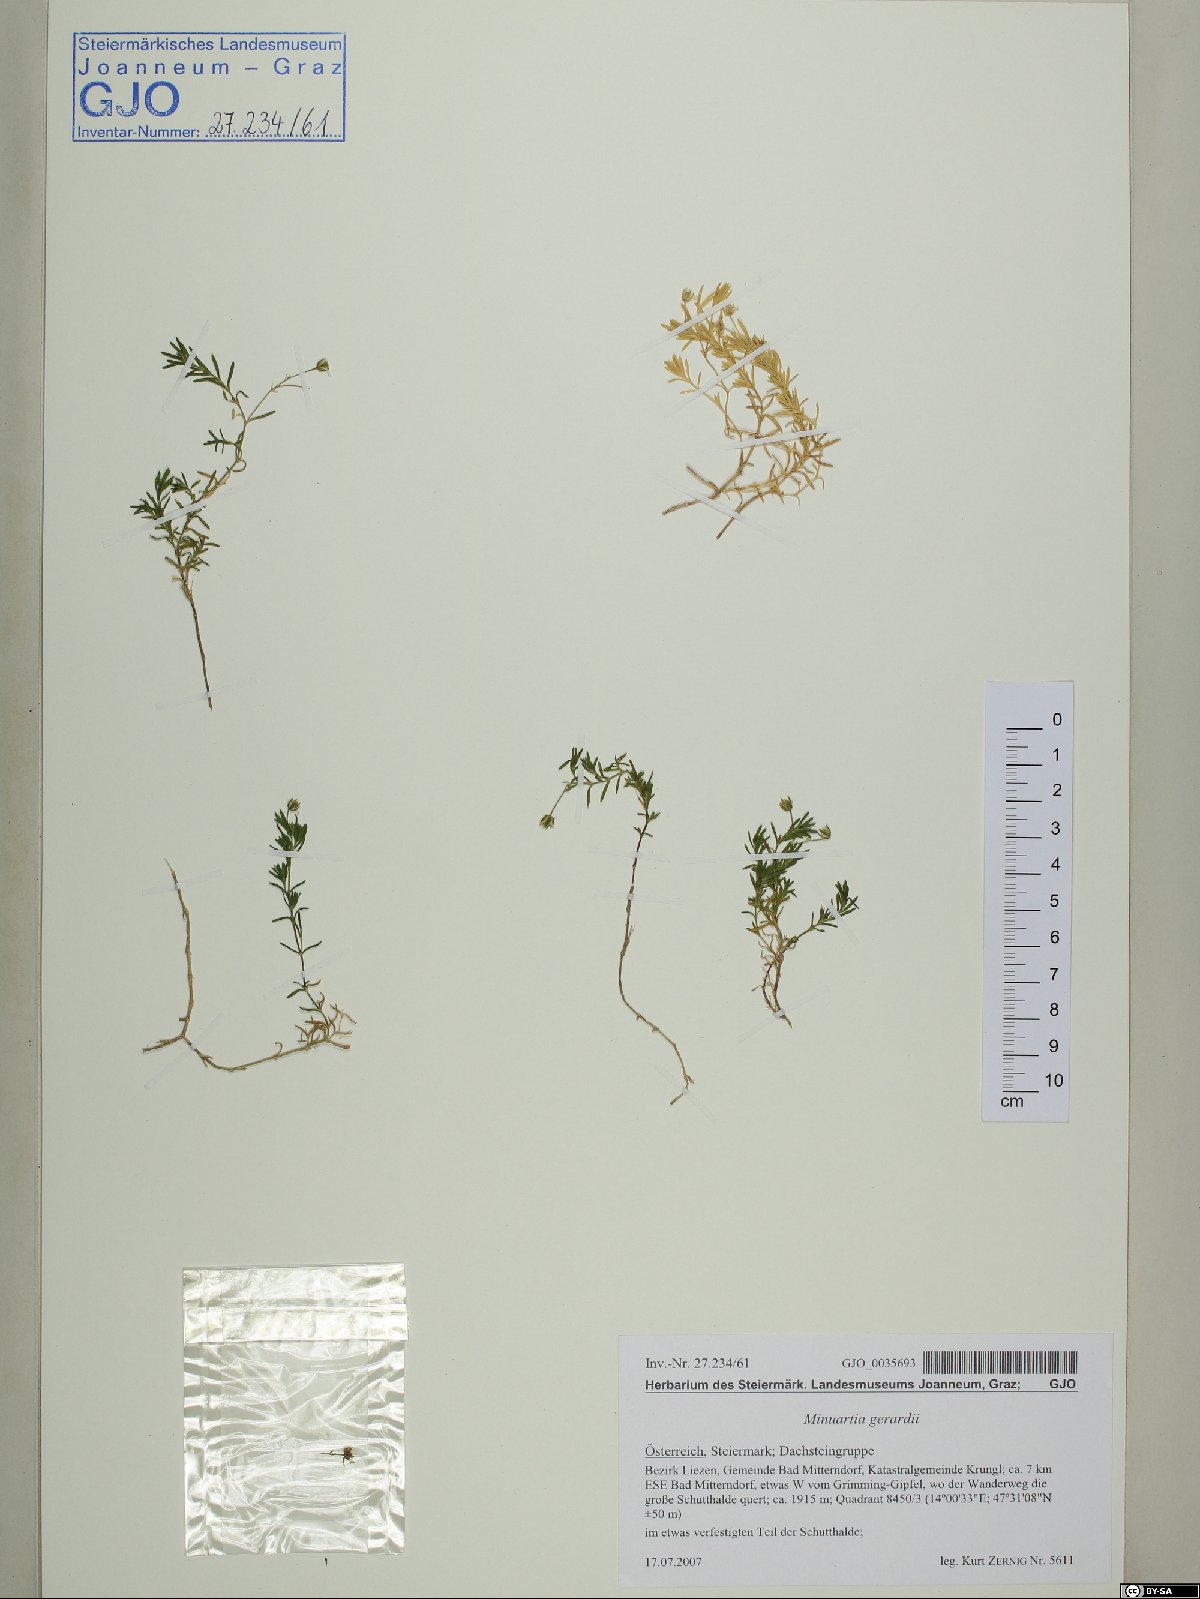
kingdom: Plantae
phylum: Tracheophyta
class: Magnoliopsida
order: Caryophyllales
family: Caryophyllaceae
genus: Sabulina
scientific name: Sabulina verna
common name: Spring sandwort
